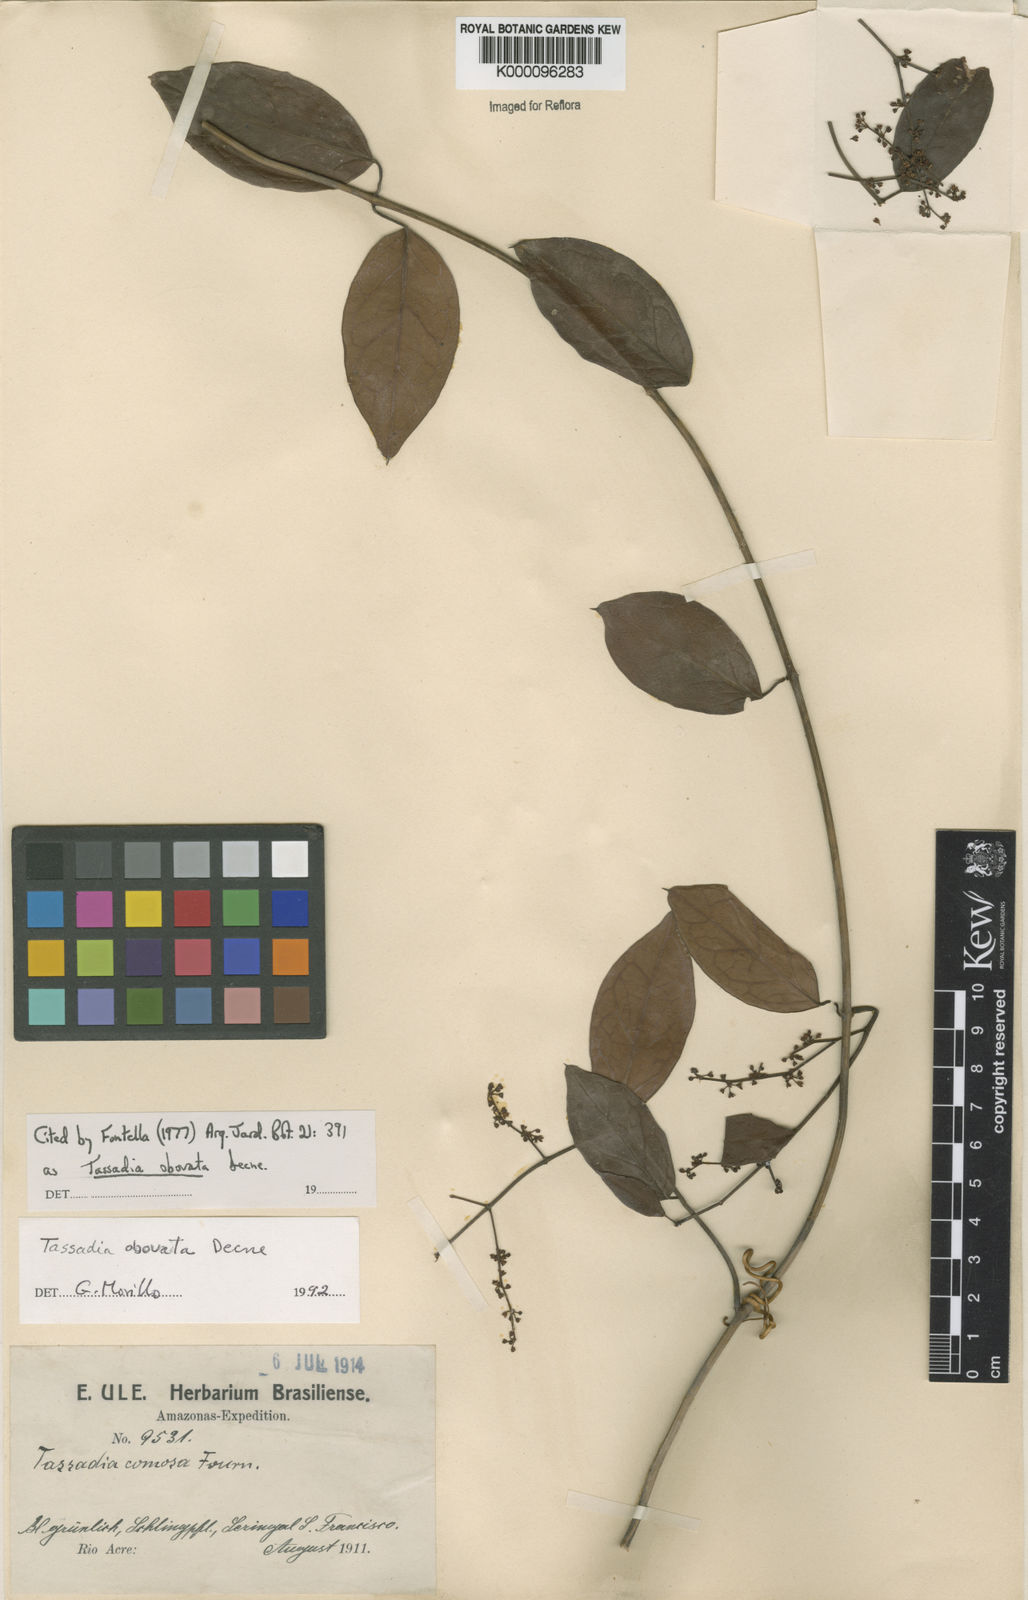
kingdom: Plantae
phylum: Tracheophyta
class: Magnoliopsida
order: Gentianales
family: Apocynaceae
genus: Tassadia
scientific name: Tassadia obovata
